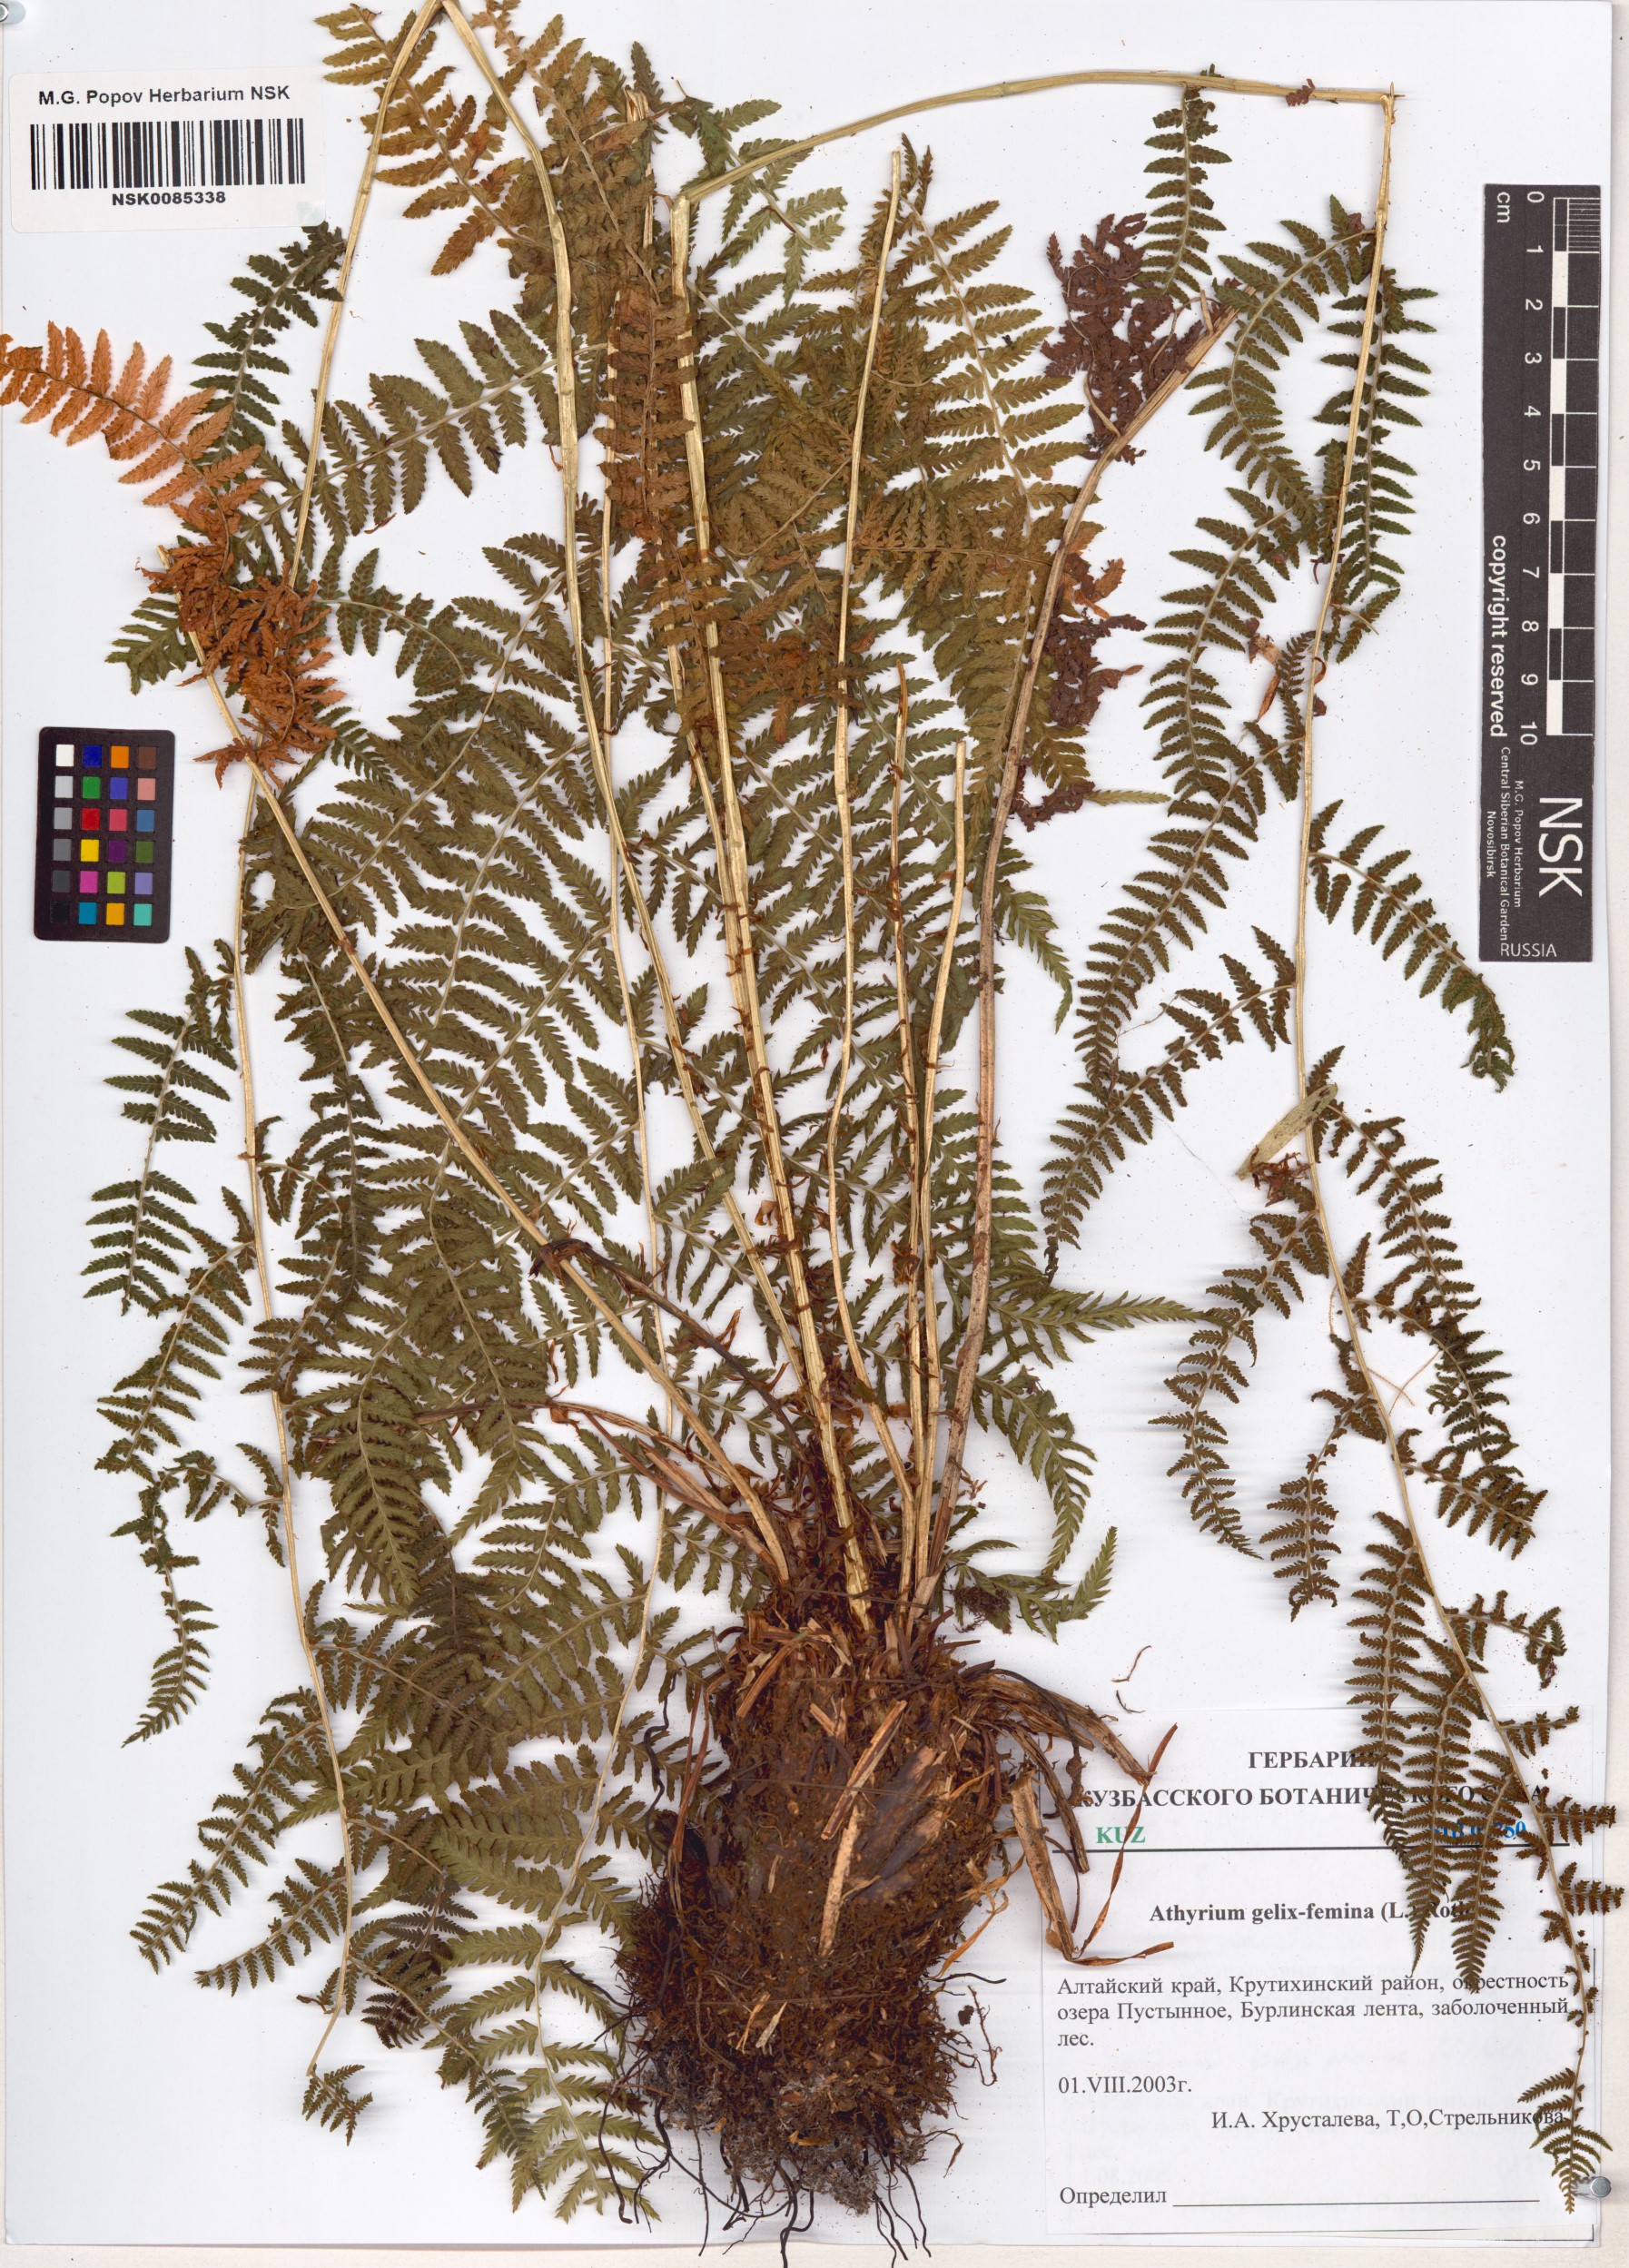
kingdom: Plantae
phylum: Tracheophyta
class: Polypodiopsida
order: Polypodiales
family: Athyriaceae
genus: Athyrium
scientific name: Athyrium filix-femina
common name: Lady fern
